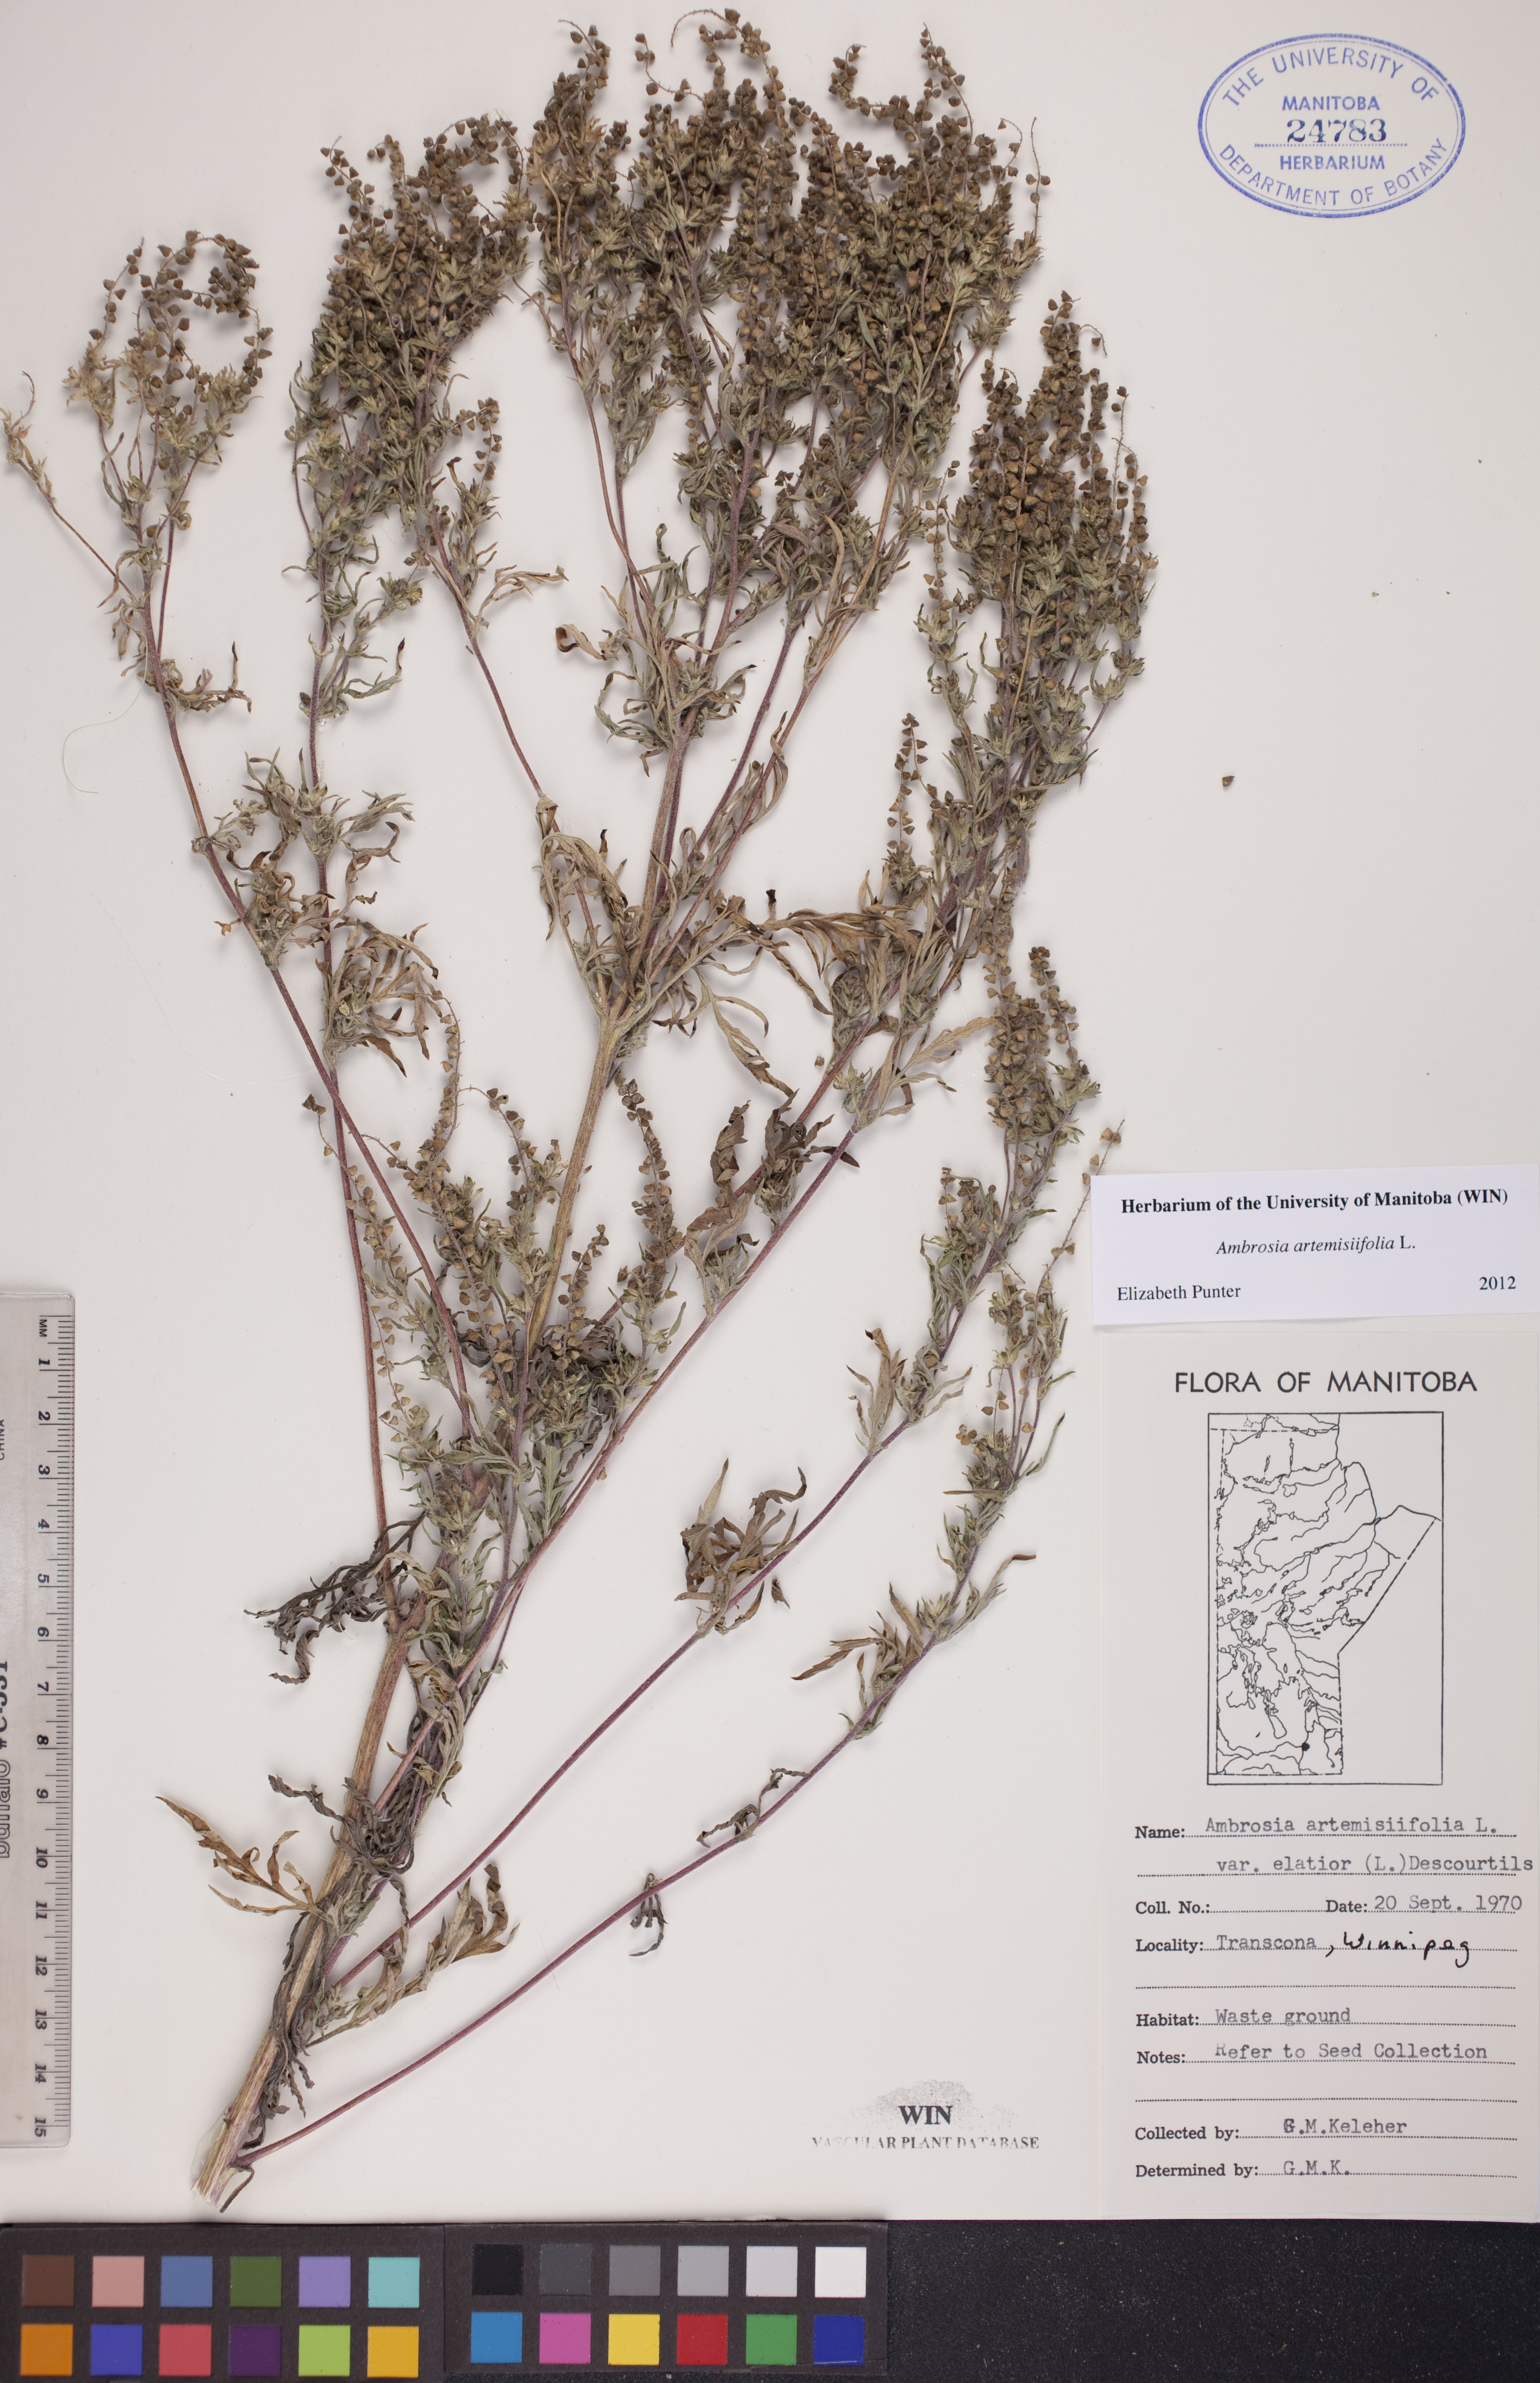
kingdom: Plantae
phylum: Tracheophyta
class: Magnoliopsida
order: Asterales
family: Asteraceae
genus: Ambrosia
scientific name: Ambrosia artemisiifolia
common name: Annual ragweed
